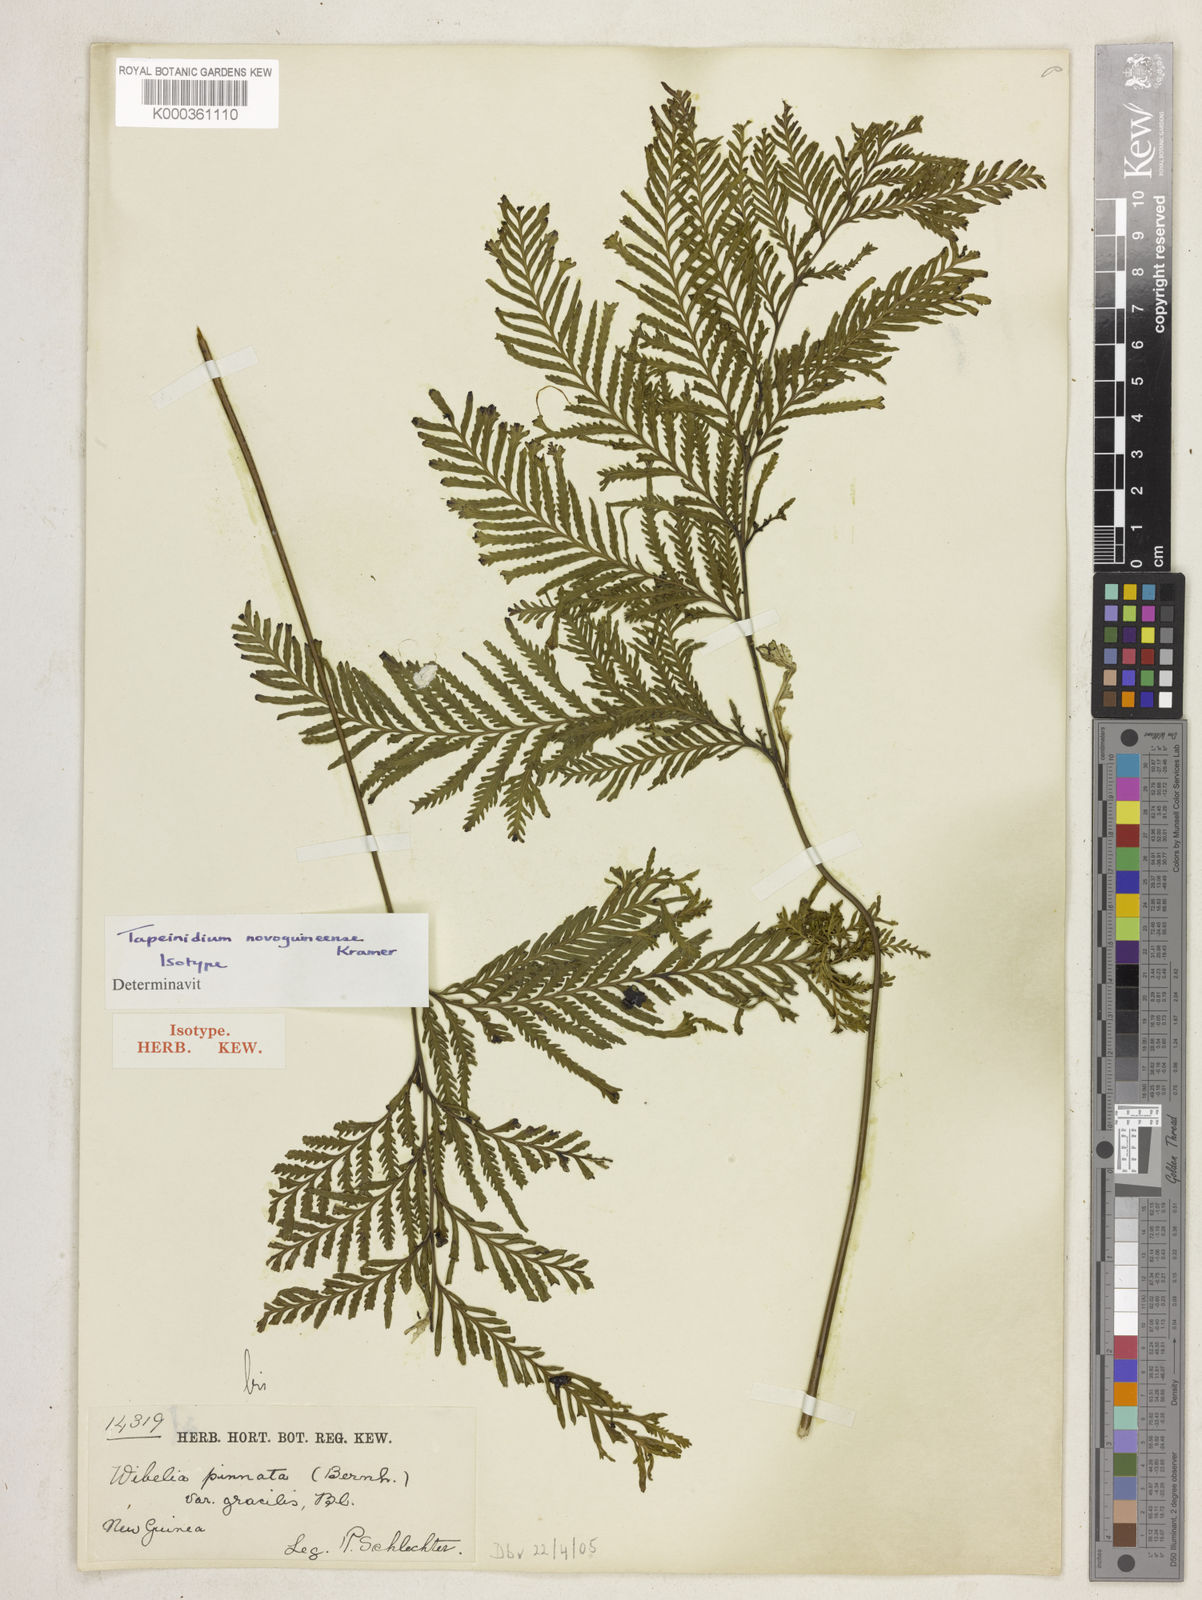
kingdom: Plantae
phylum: Tracheophyta
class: Polypodiopsida
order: Polypodiales
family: Lindsaeaceae
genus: Tapeinidium
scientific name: Tapeinidium novoguineense
